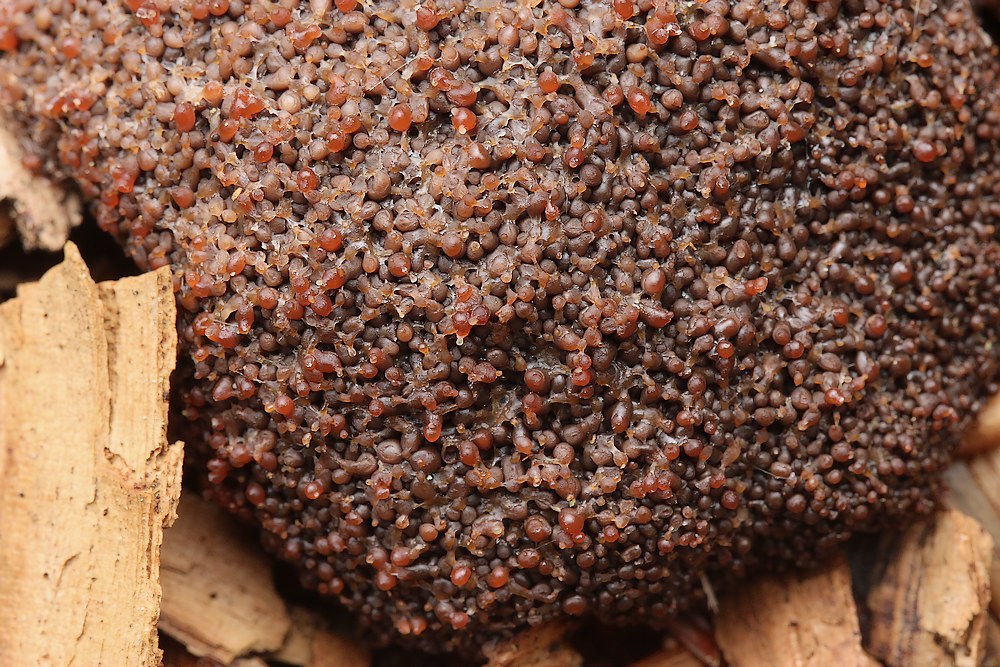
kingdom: Protozoa
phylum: Mycetozoa
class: Myxomycetes
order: Cribrariales
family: Tubiferaceae
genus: Tubifera
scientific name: Tubifera ferruginosa
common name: kanel-støvrør
